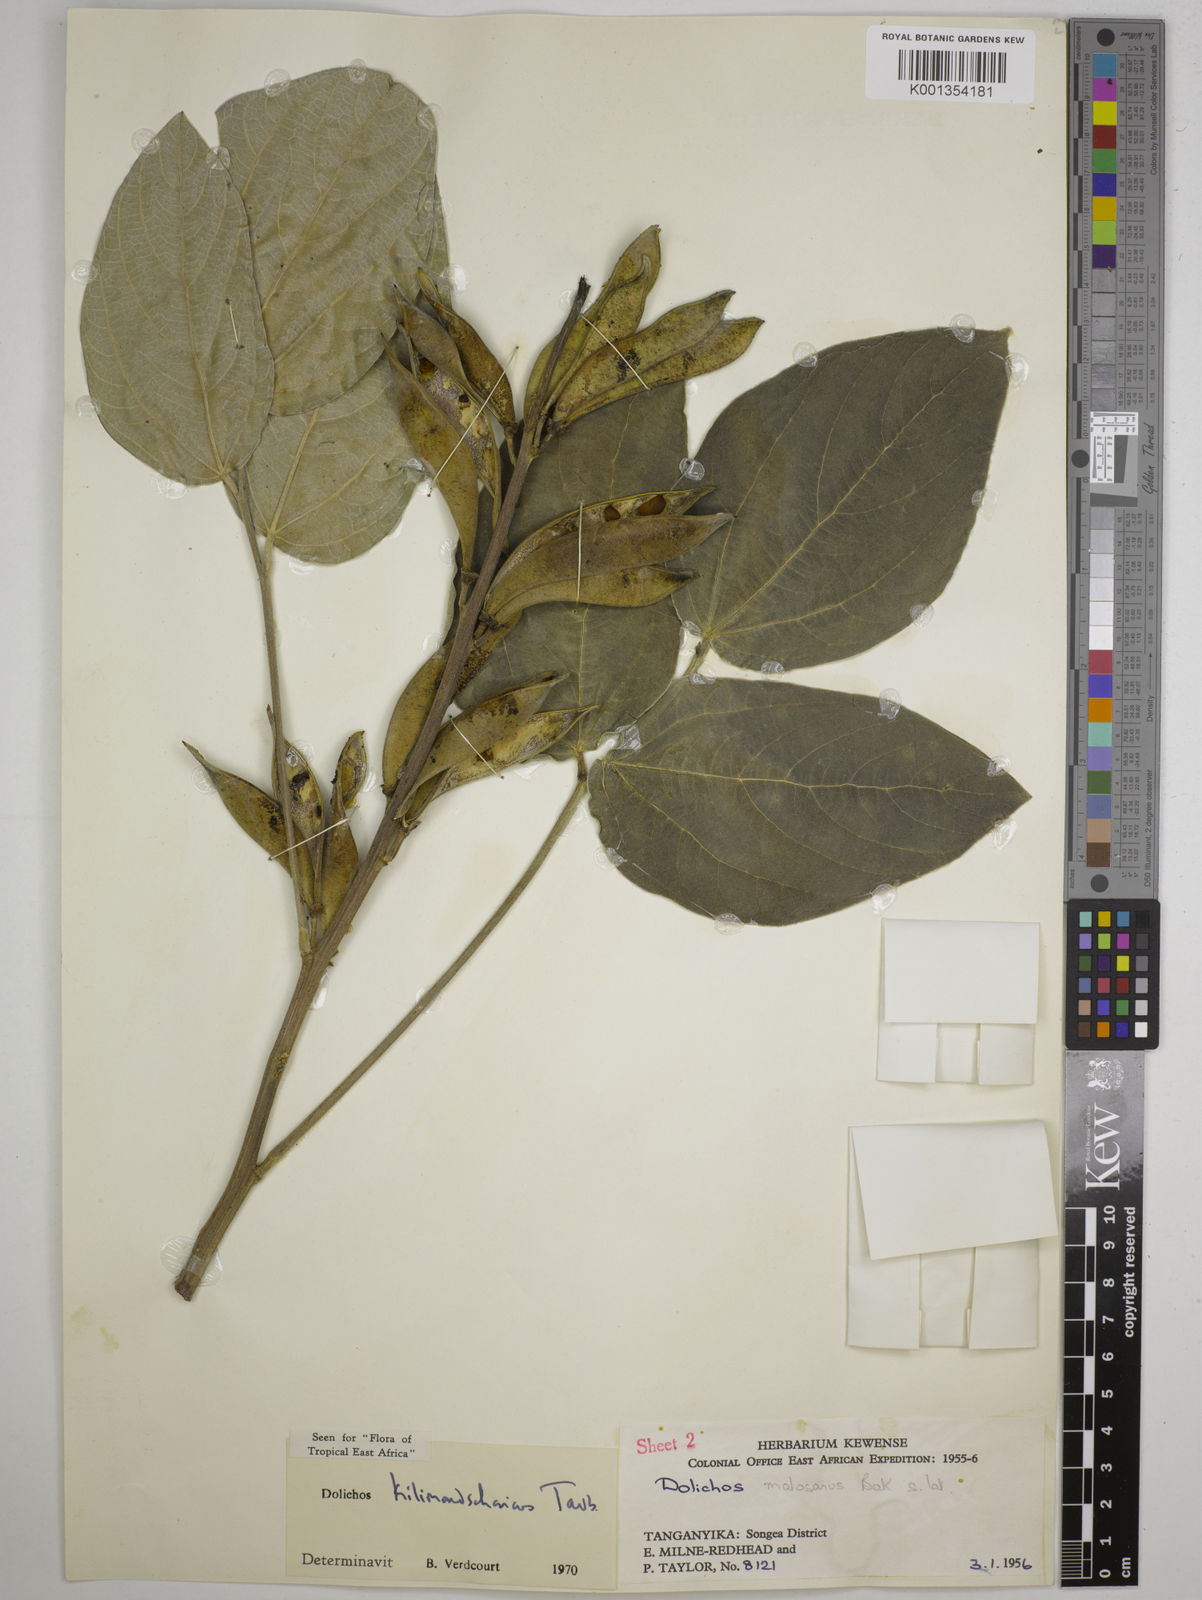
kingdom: Plantae
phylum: Tracheophyta
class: Magnoliopsida
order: Fabales
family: Fabaceae
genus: Dolichos
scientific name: Dolichos kilimandscharicus
